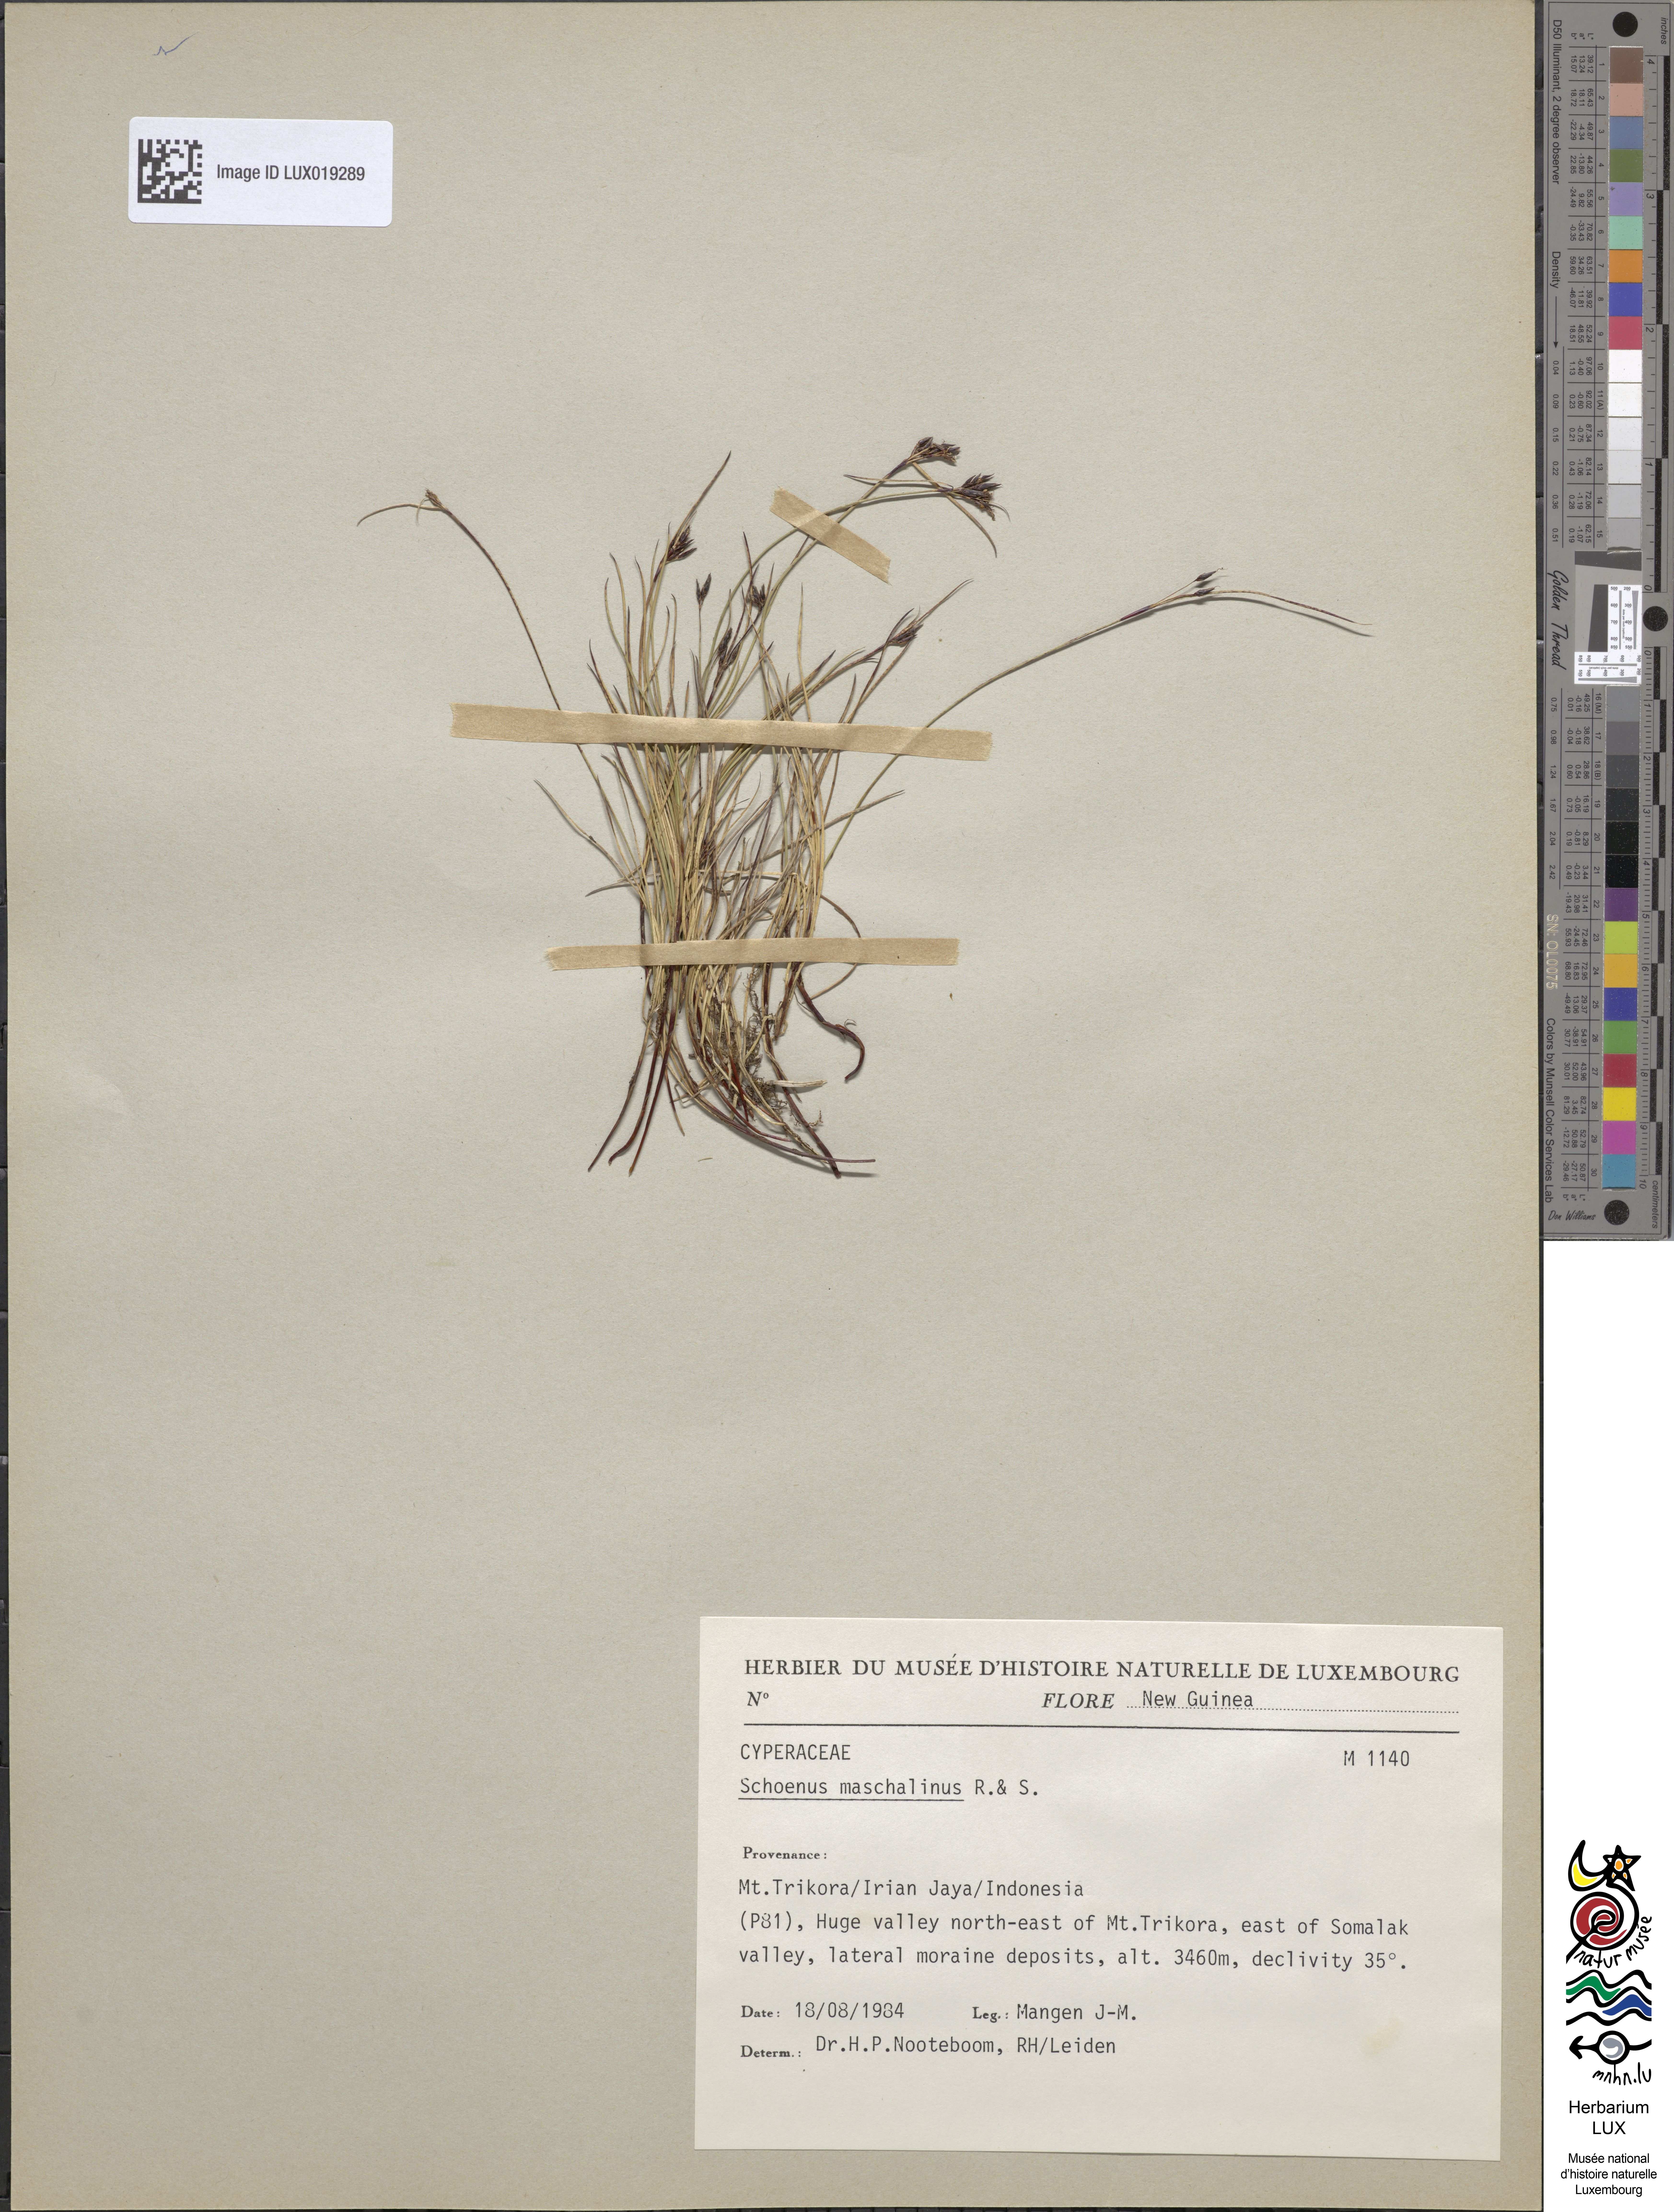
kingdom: Plantae
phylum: Tracheophyta
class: Liliopsida
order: Poales
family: Cyperaceae
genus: Schoenus
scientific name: Schoenus maschalinus
